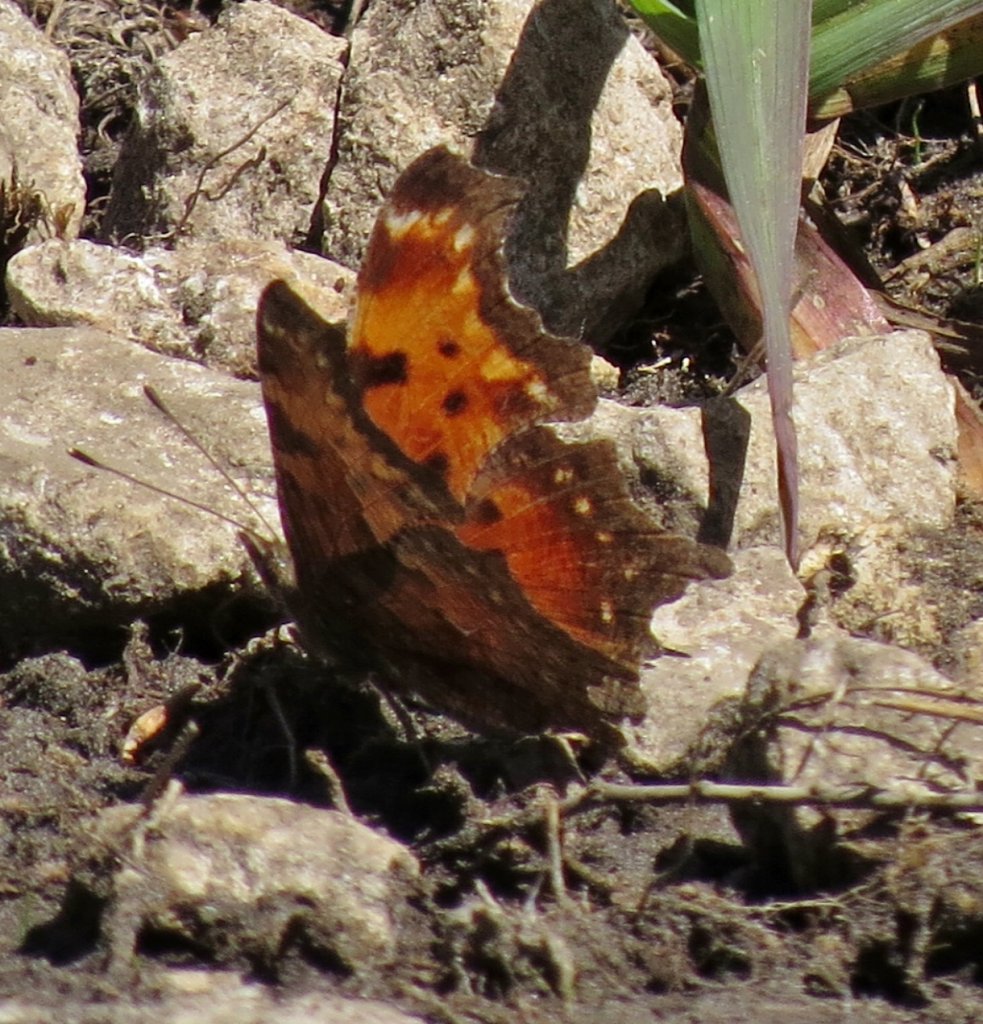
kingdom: Animalia
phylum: Arthropoda
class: Insecta
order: Lepidoptera
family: Nymphalidae
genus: Polygonia
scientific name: Polygonia progne
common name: Gray Comma
